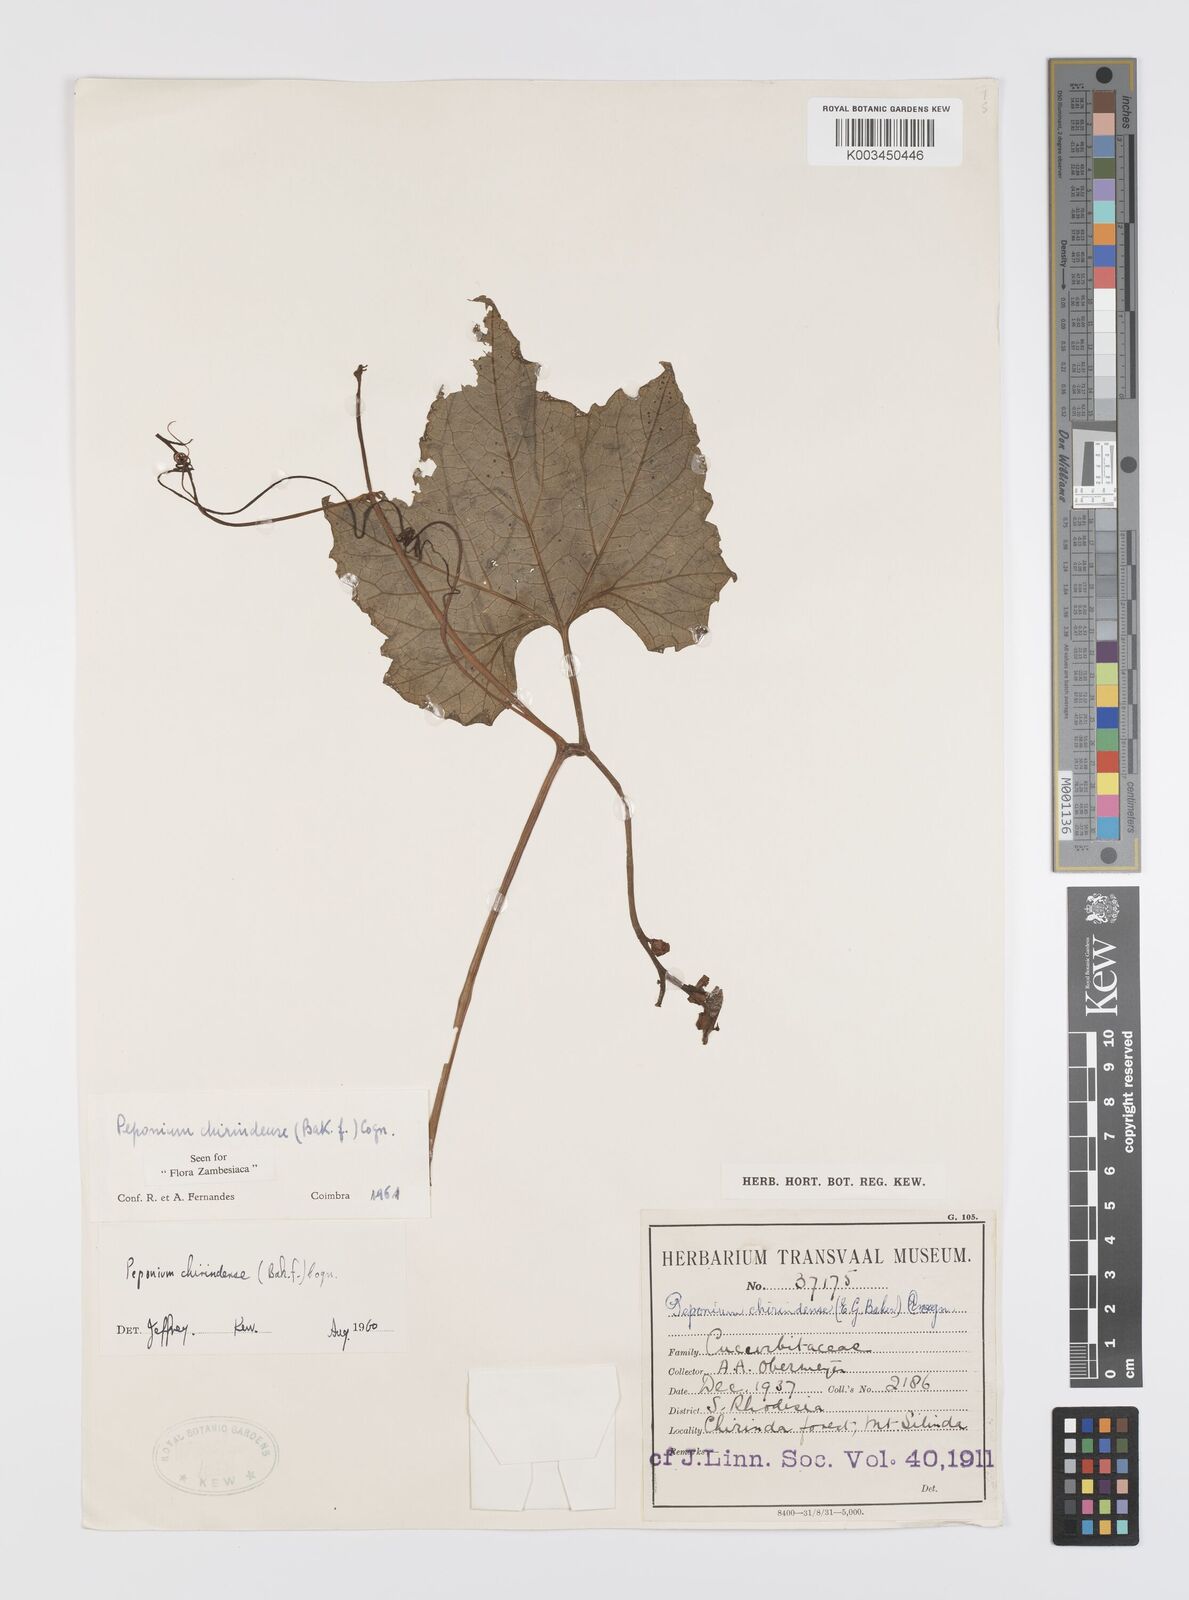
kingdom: Plantae
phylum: Tracheophyta
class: Magnoliopsida
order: Cucurbitales
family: Cucurbitaceae
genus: Peponium
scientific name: Peponium chirindense
